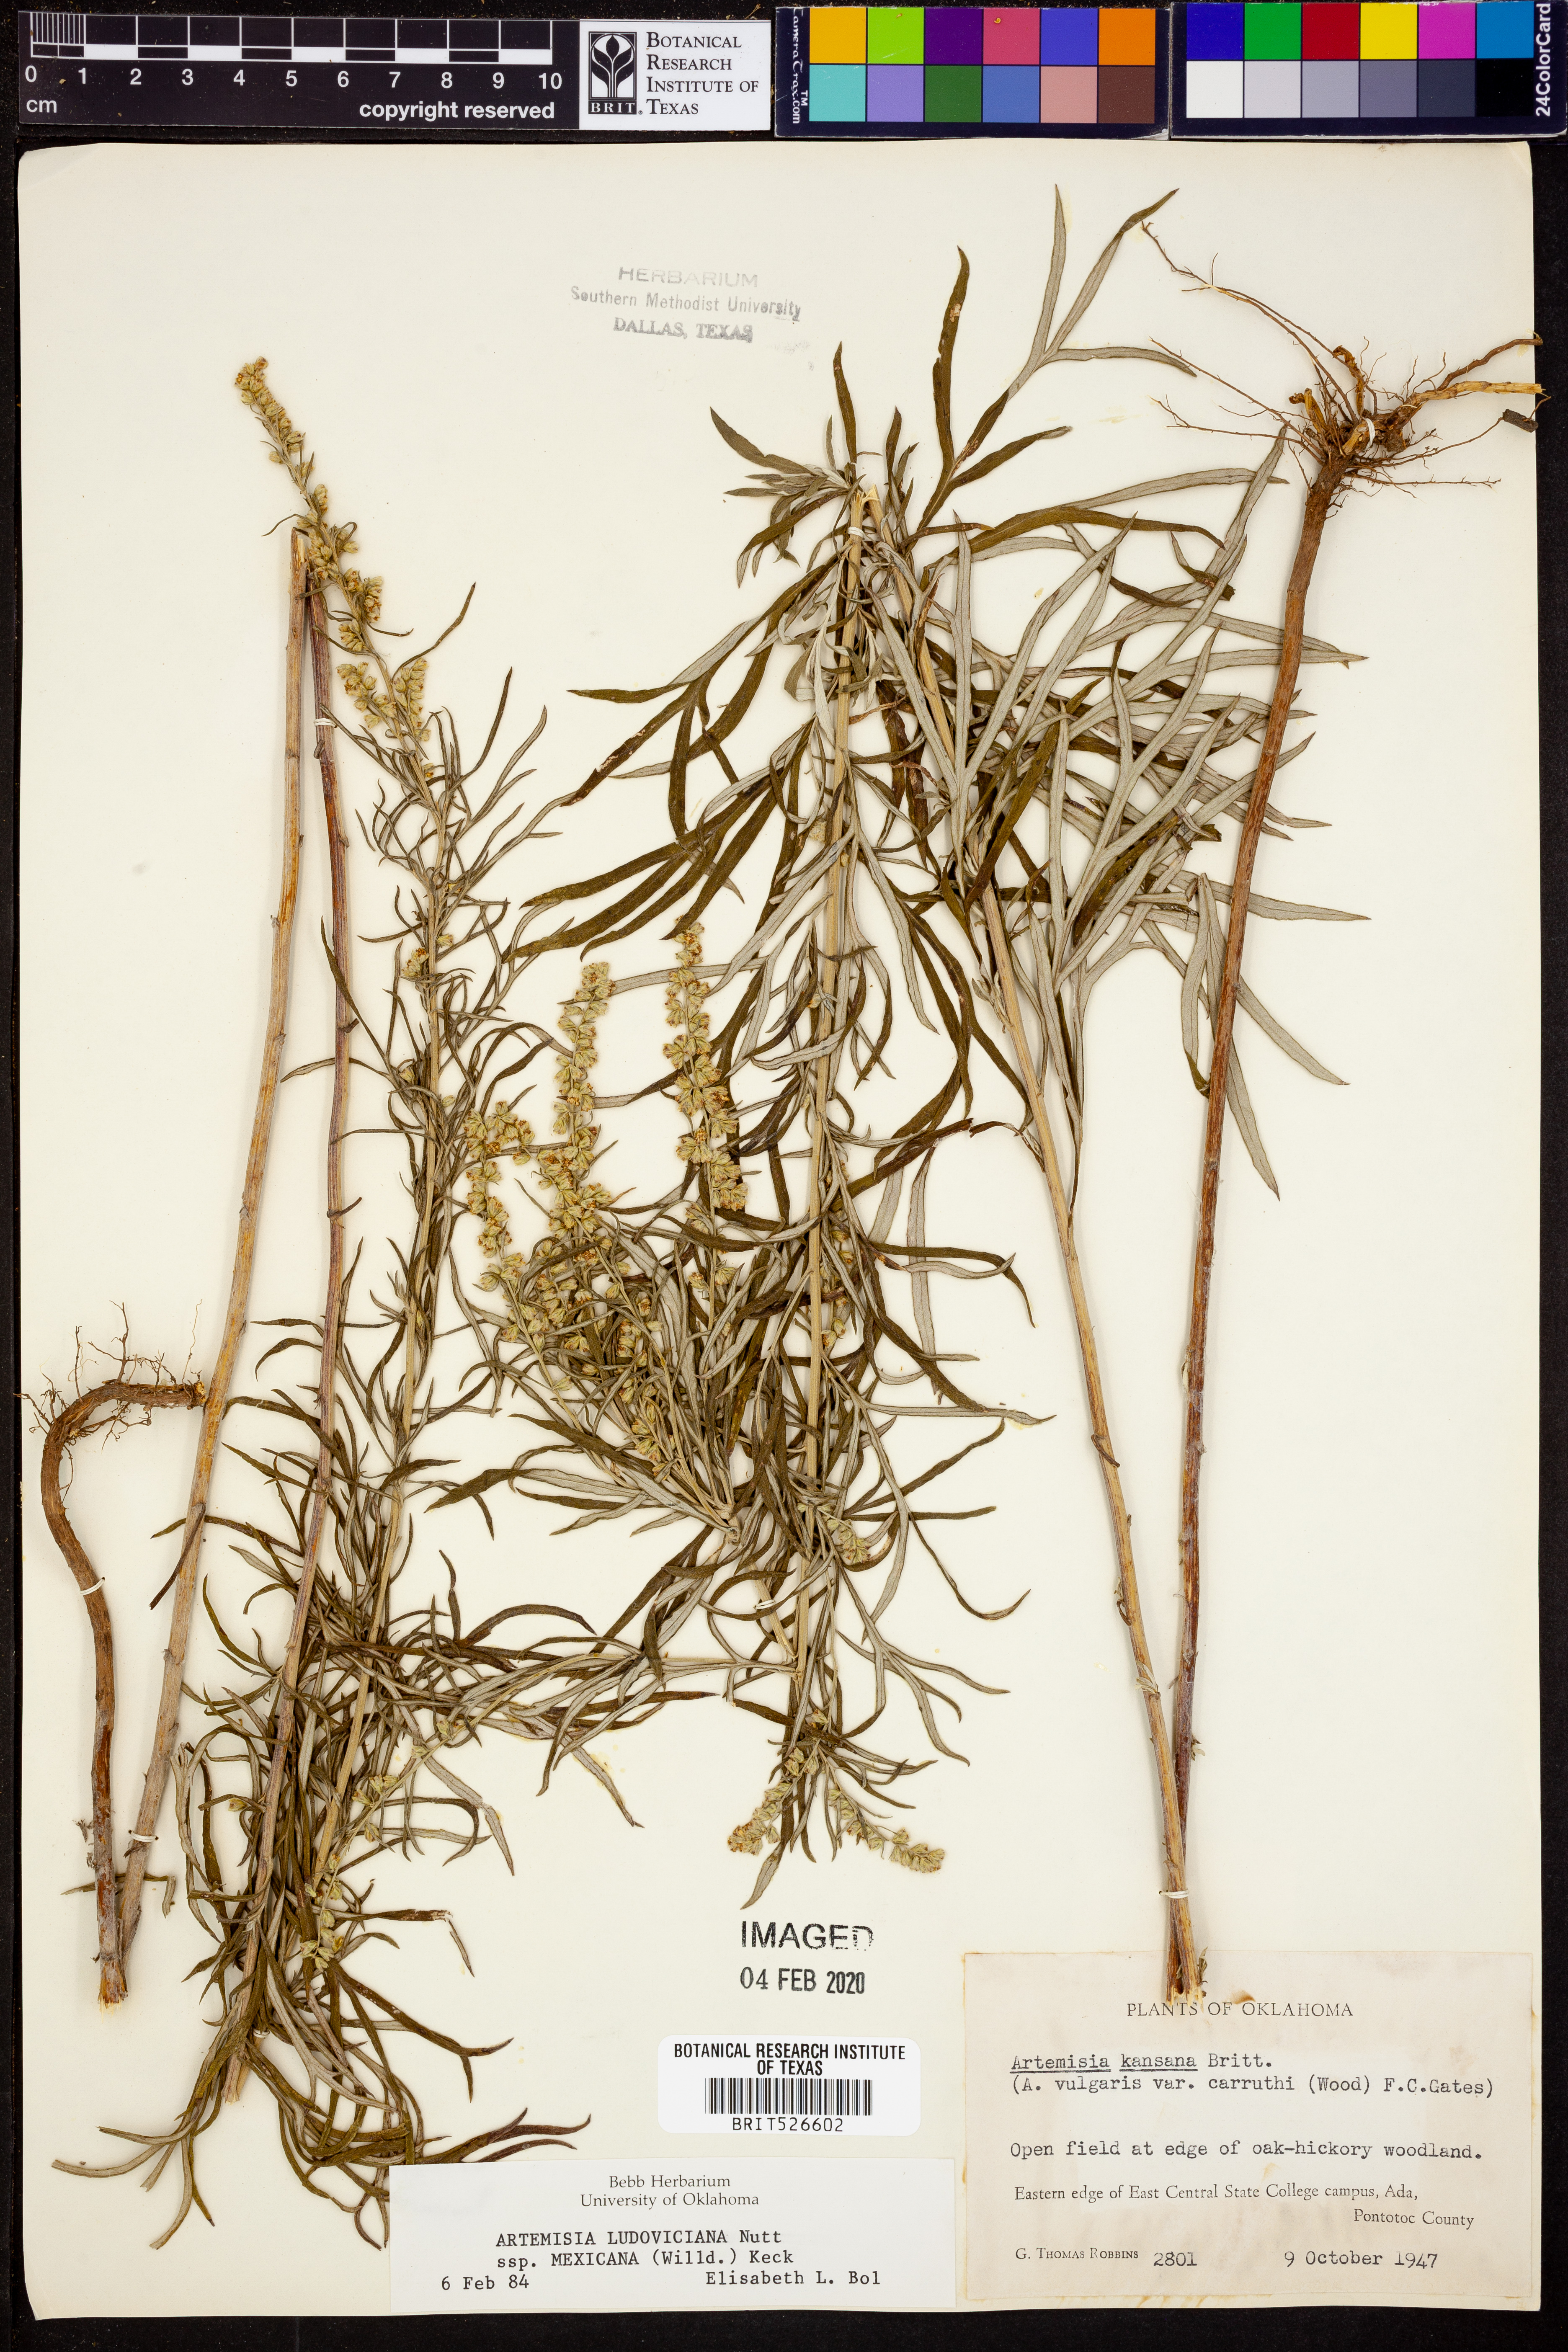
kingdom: Plantae
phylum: Tracheophyta
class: Magnoliopsida
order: Asterales
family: Asteraceae
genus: Artemisia
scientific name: Artemisia ludoviciana
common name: Western mugwort
